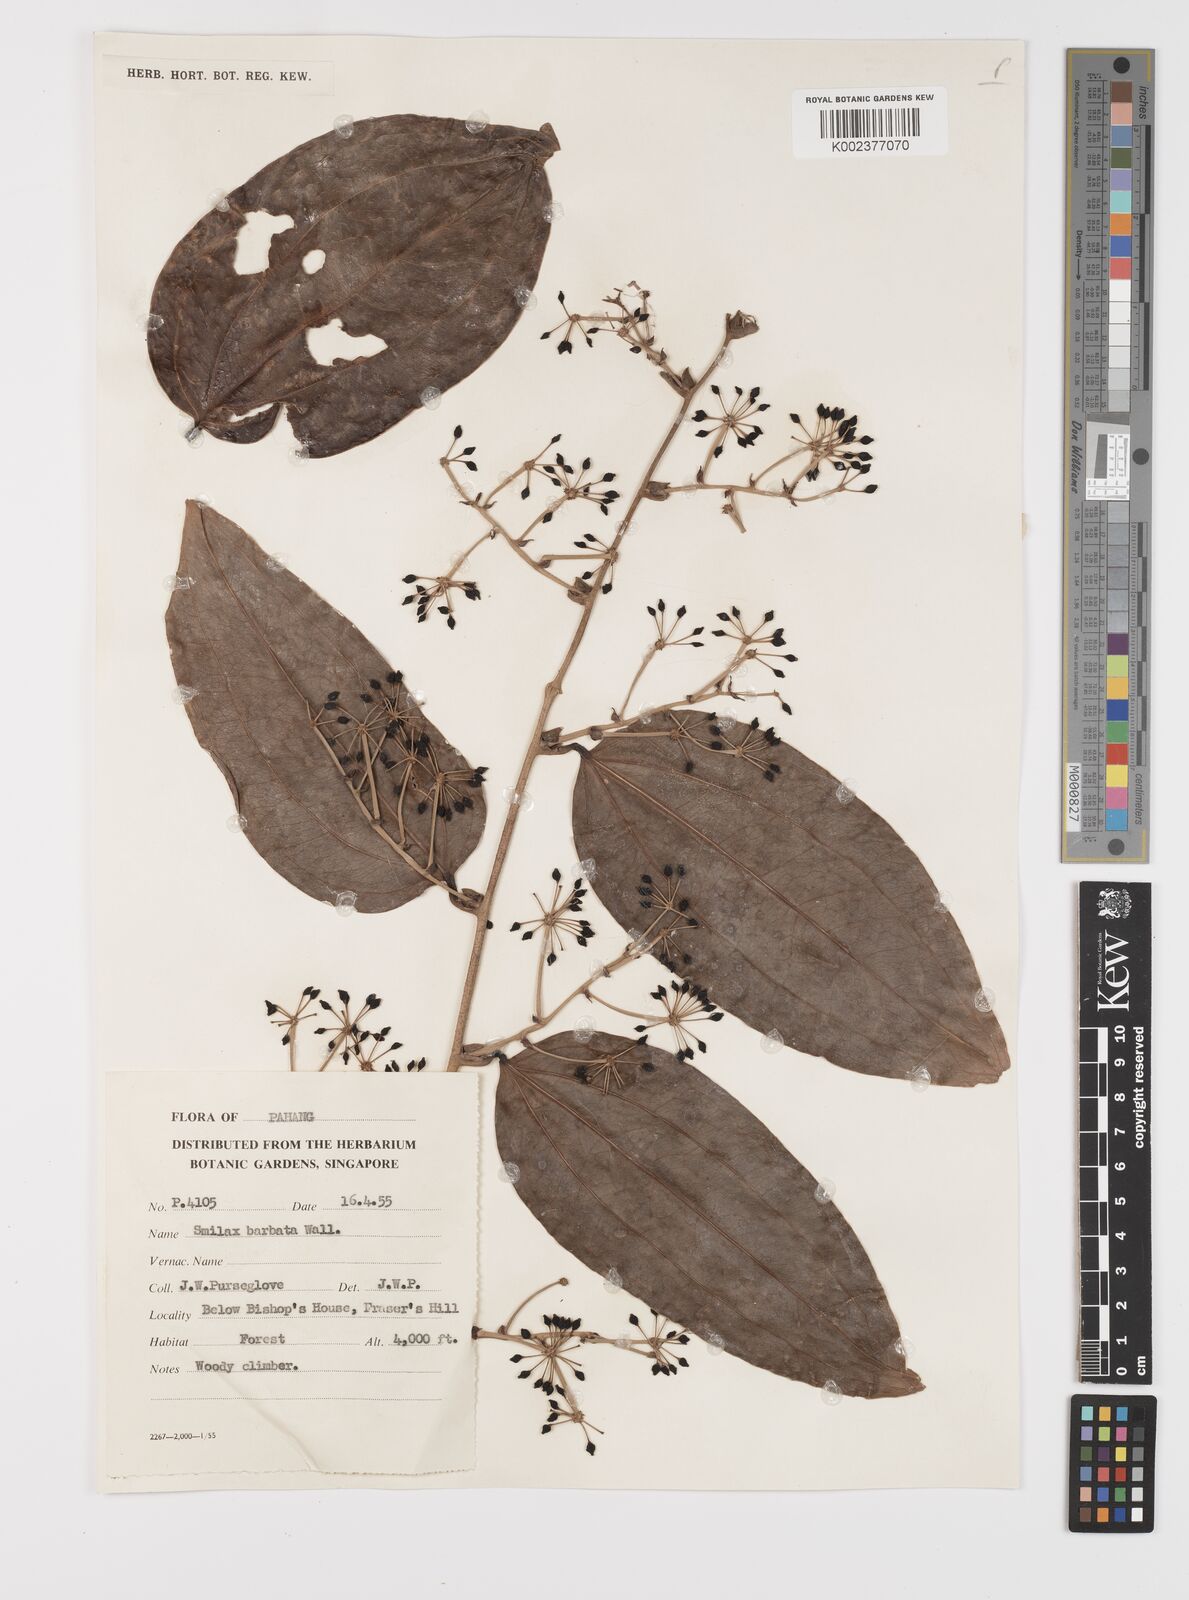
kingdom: Plantae
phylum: Tracheophyta
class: Liliopsida
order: Liliales
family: Smilacaceae
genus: Smilax
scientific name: Smilax bracteata
